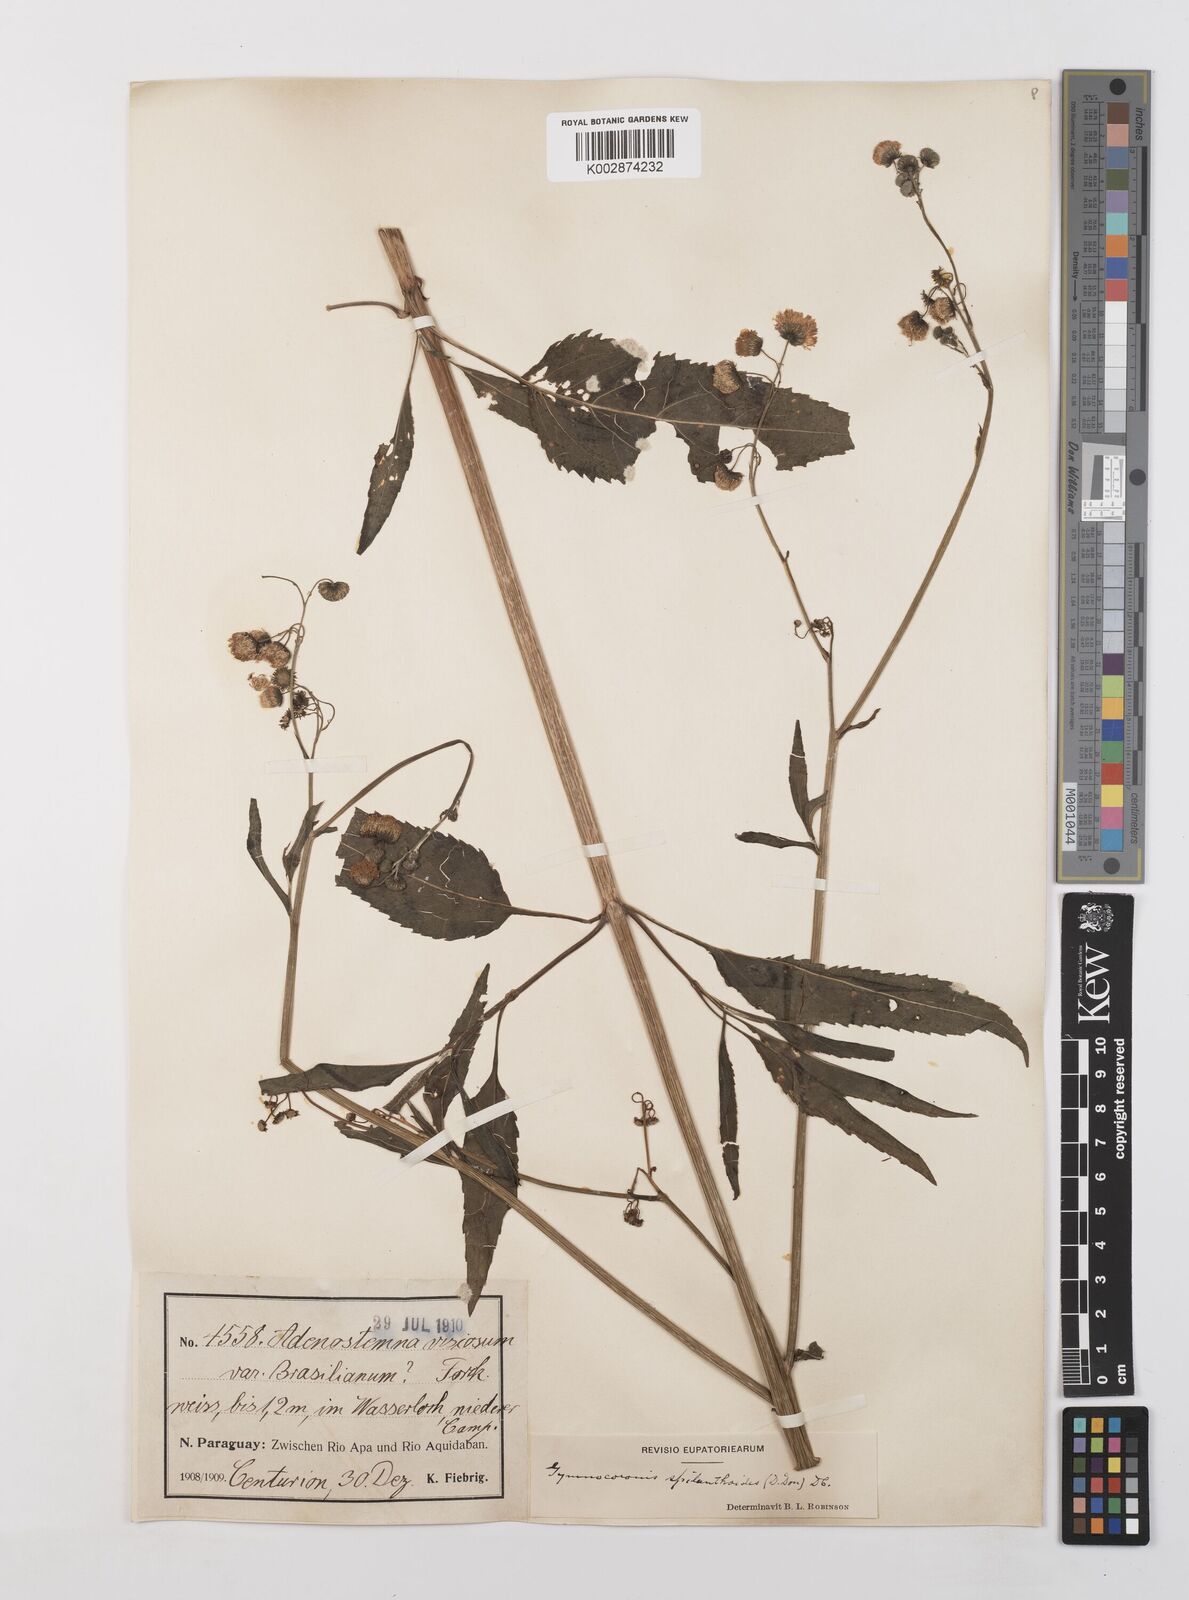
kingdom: Plantae
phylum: Tracheophyta
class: Magnoliopsida
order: Asterales
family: Asteraceae
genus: Gymnocoronis
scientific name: Gymnocoronis spilanthoides
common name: Senegal teaplant
